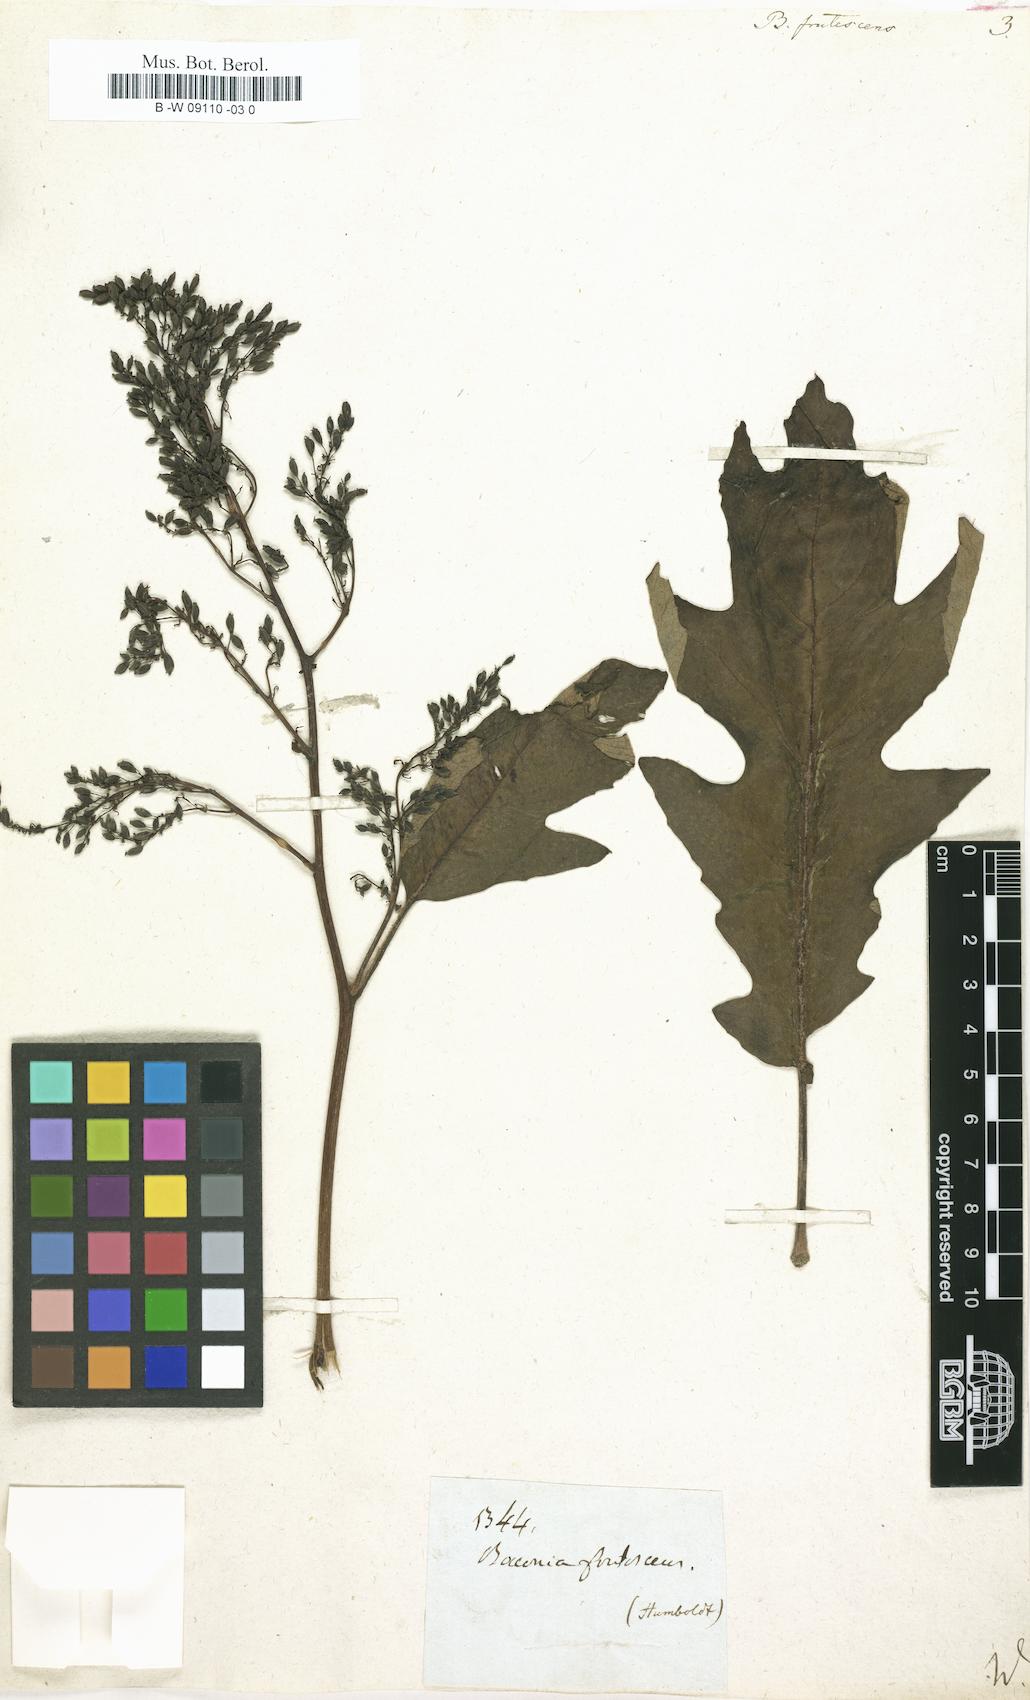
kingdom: Plantae
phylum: Tracheophyta
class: Magnoliopsida
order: Ranunculales
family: Papaveraceae
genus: Bocconia
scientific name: Bocconia frutescens
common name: Tree poppy
